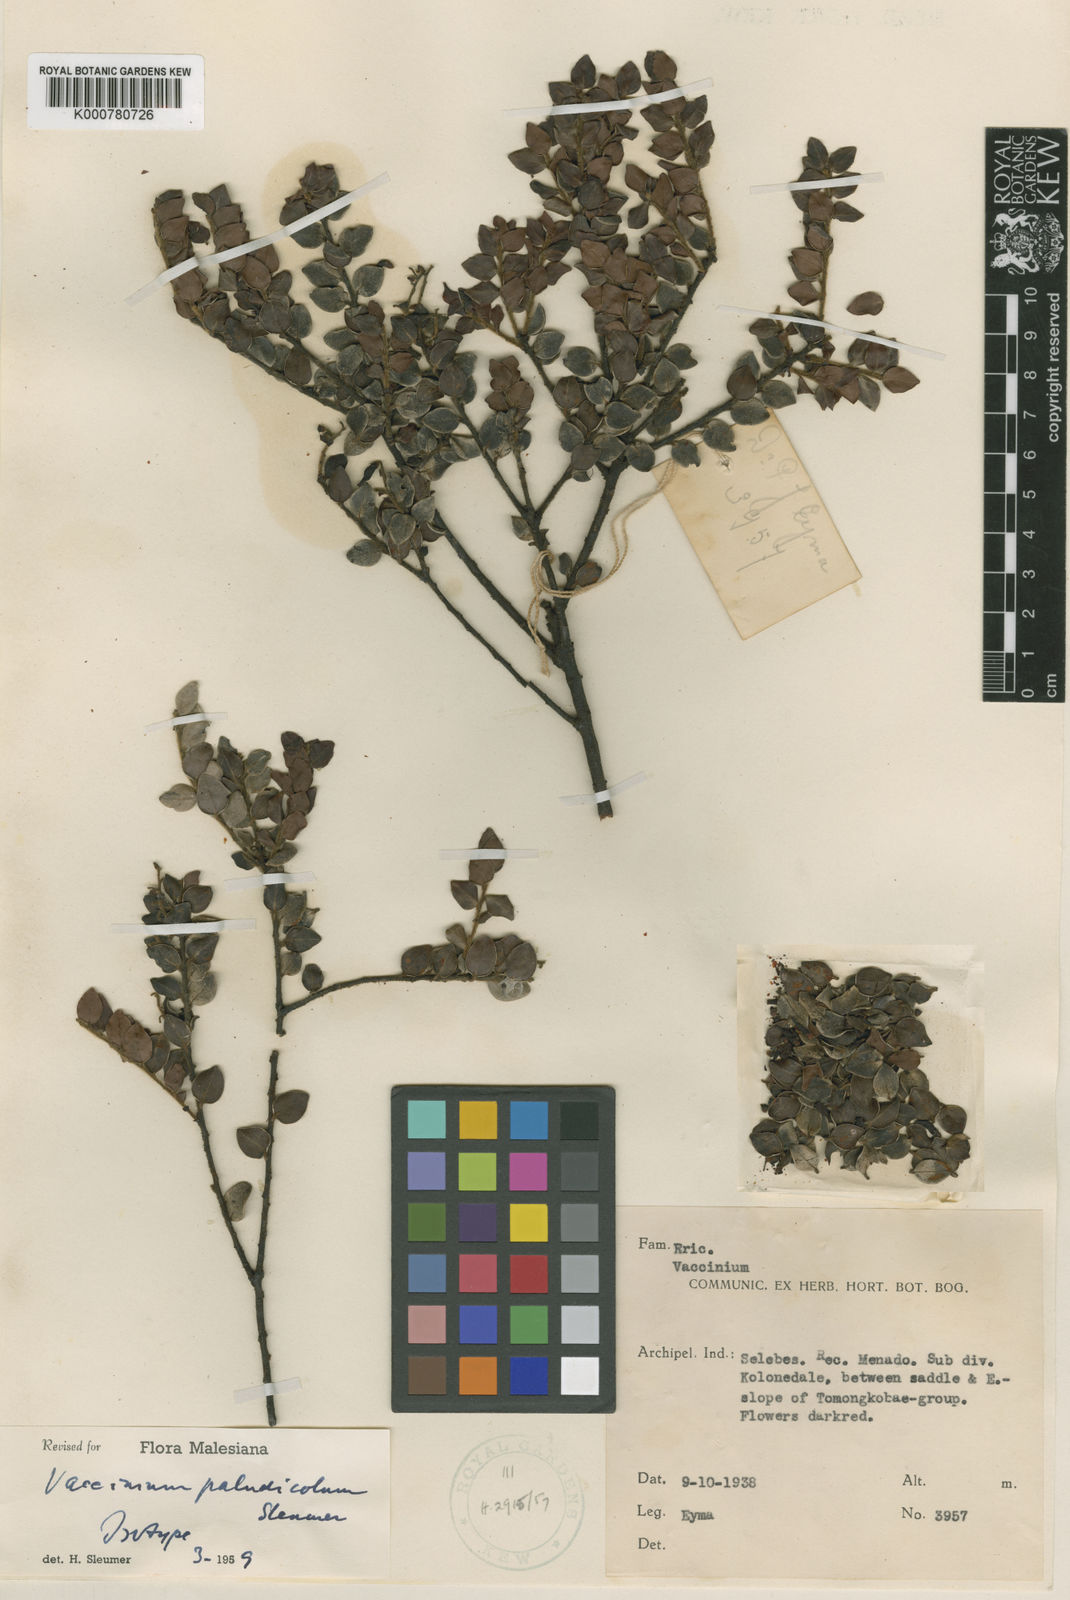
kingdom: Plantae
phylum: Tracheophyta
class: Magnoliopsida
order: Ericales
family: Ericaceae
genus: Vaccinium
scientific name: Vaccinium
